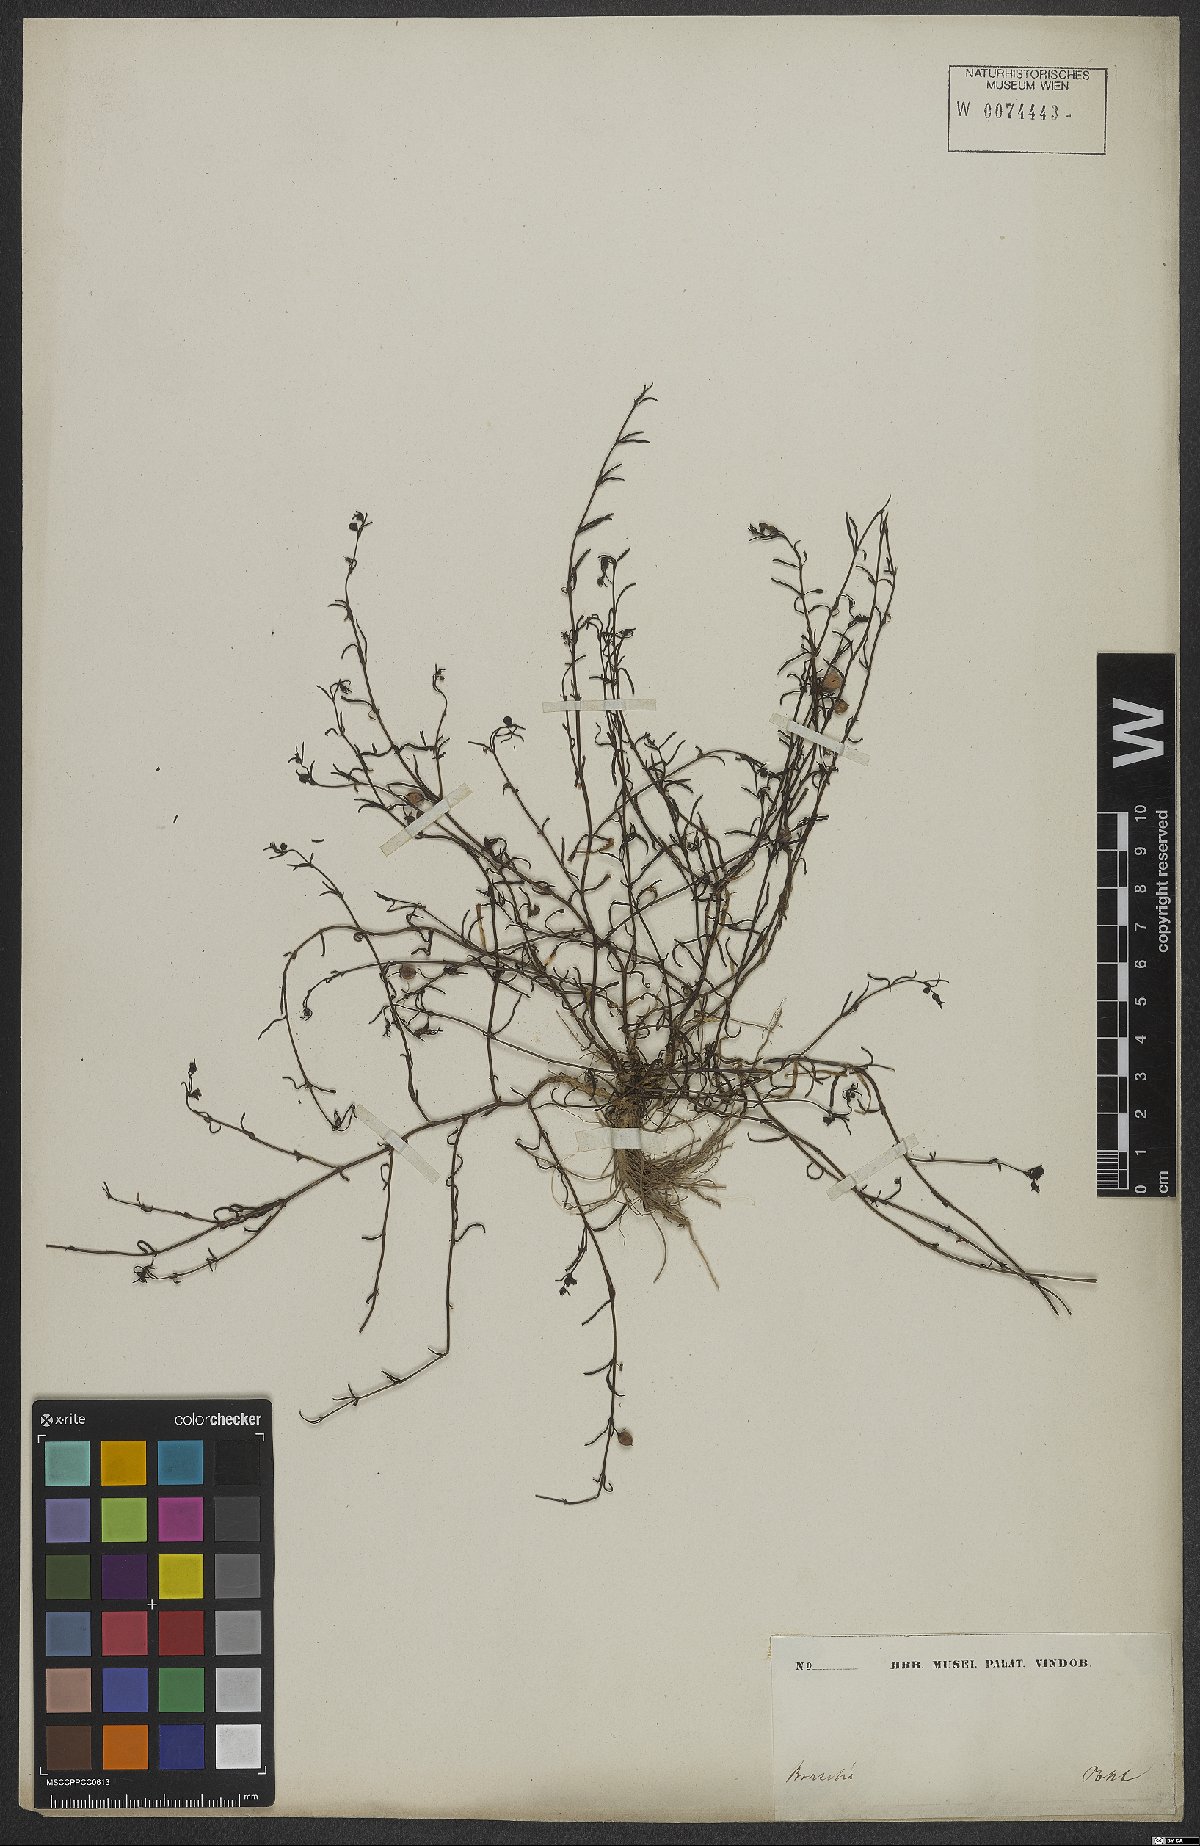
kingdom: Plantae
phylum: Tracheophyta
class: Magnoliopsida
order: Lamiales
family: Scrophulariaceae
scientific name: Scrophulariaceae
